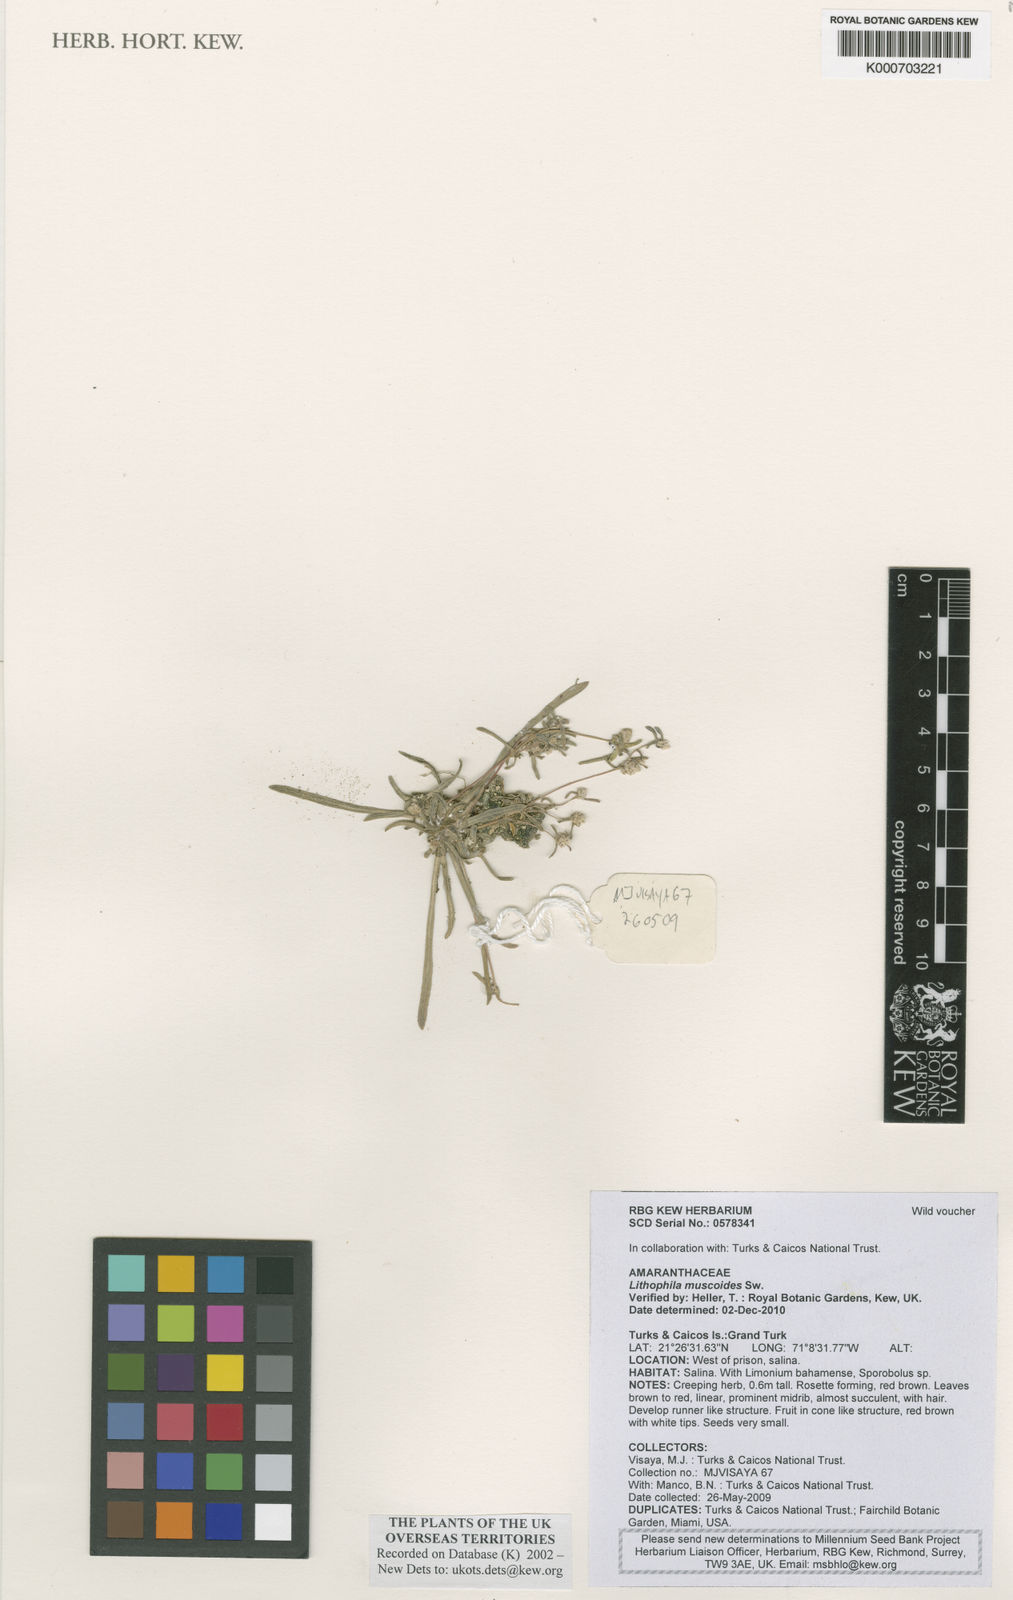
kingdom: Plantae
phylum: Tracheophyta
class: Magnoliopsida
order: Caryophyllales
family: Amaranthaceae
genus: Gomphrena
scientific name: Gomphrena muscoides
